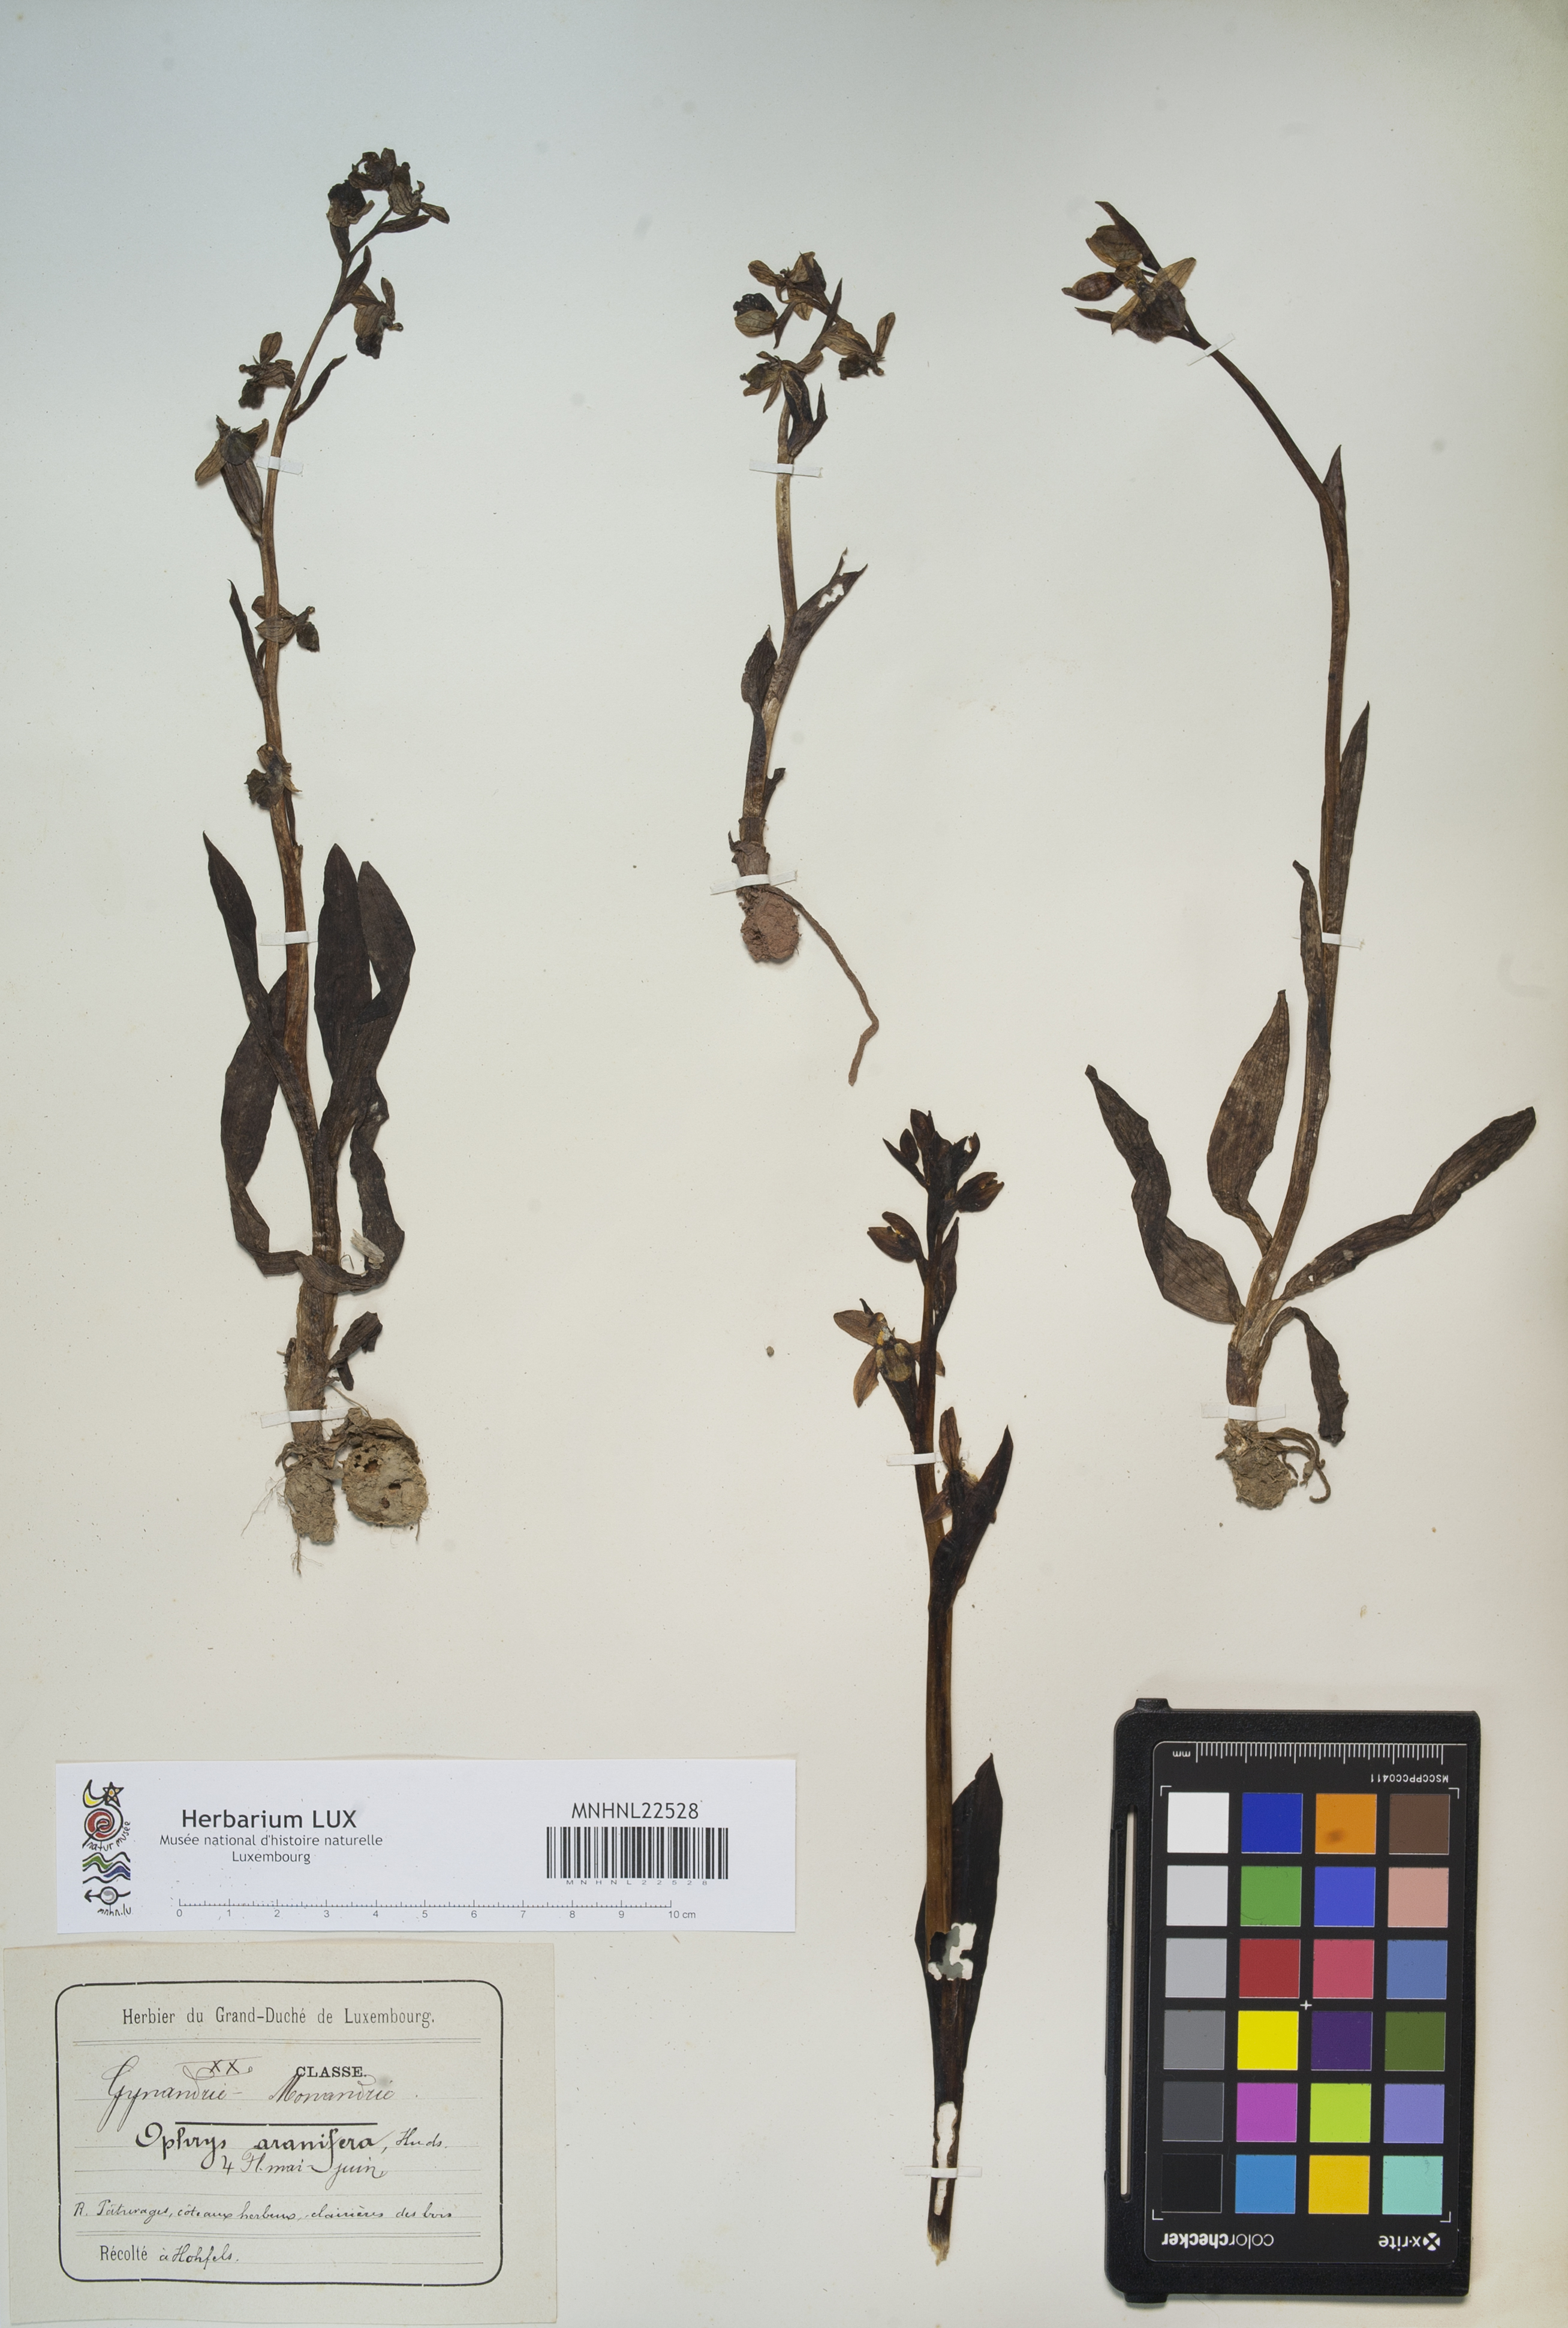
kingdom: Plantae
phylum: Tracheophyta
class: Liliopsida
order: Asparagales
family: Orchidaceae
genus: Ophrys
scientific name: Ophrys sphegodes
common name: Early spider-orchid
